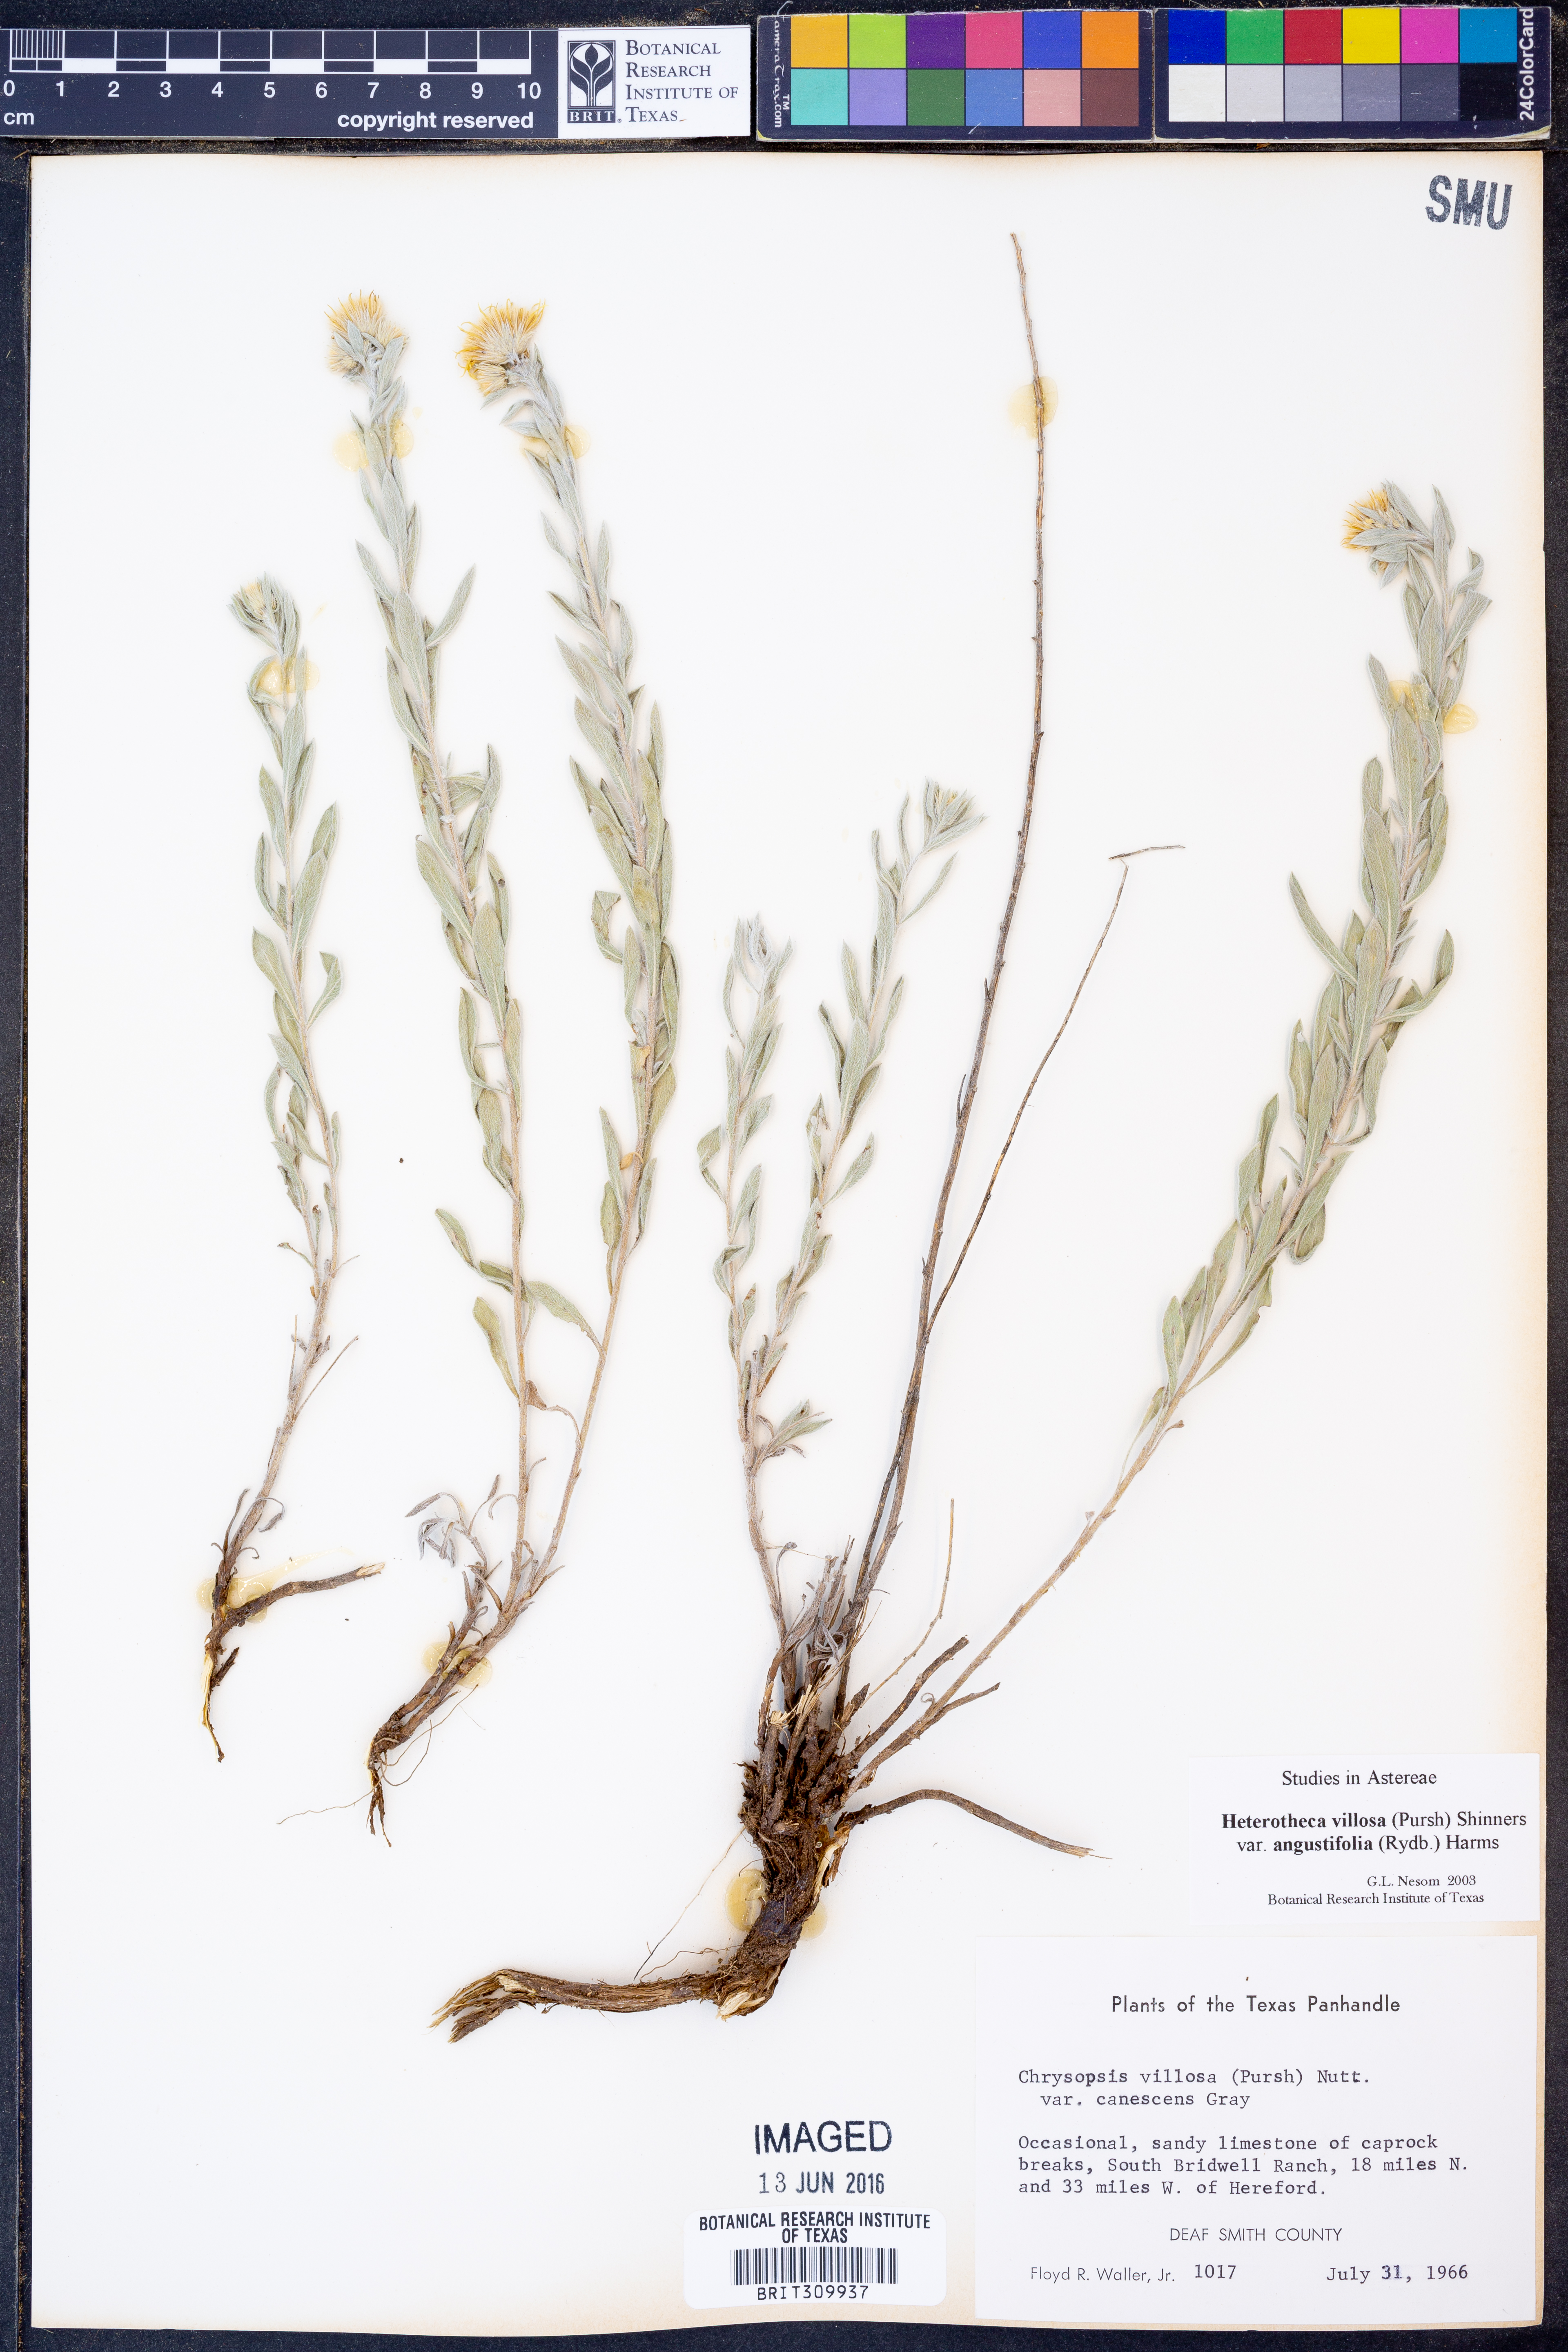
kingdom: Plantae
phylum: Tracheophyta
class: Magnoliopsida
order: Asterales
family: Asteraceae
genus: Heterotheca
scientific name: Heterotheca angustifolia
